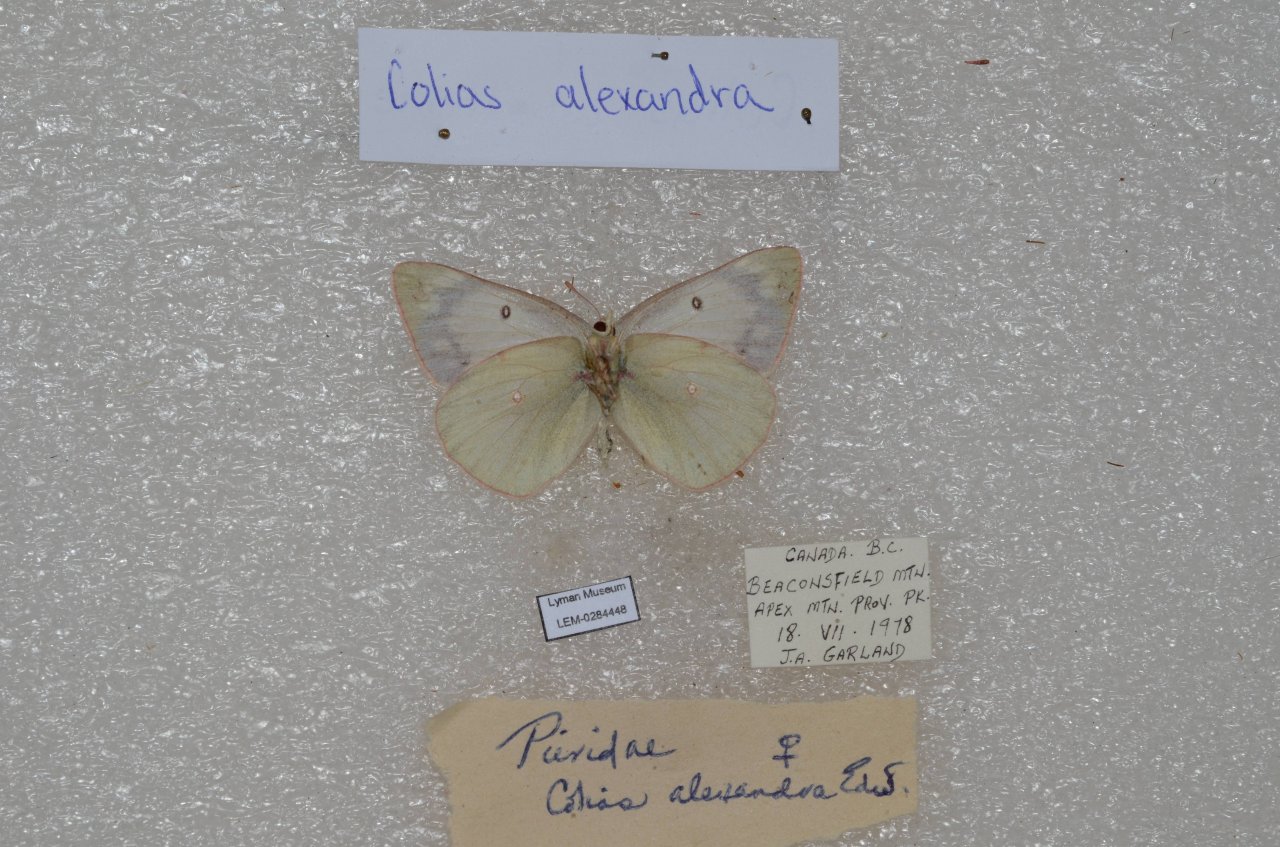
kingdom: Animalia
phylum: Arthropoda
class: Insecta
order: Lepidoptera
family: Pieridae
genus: Colias
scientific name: Colias alexandra
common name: Queen Alexandra's Sulphur
